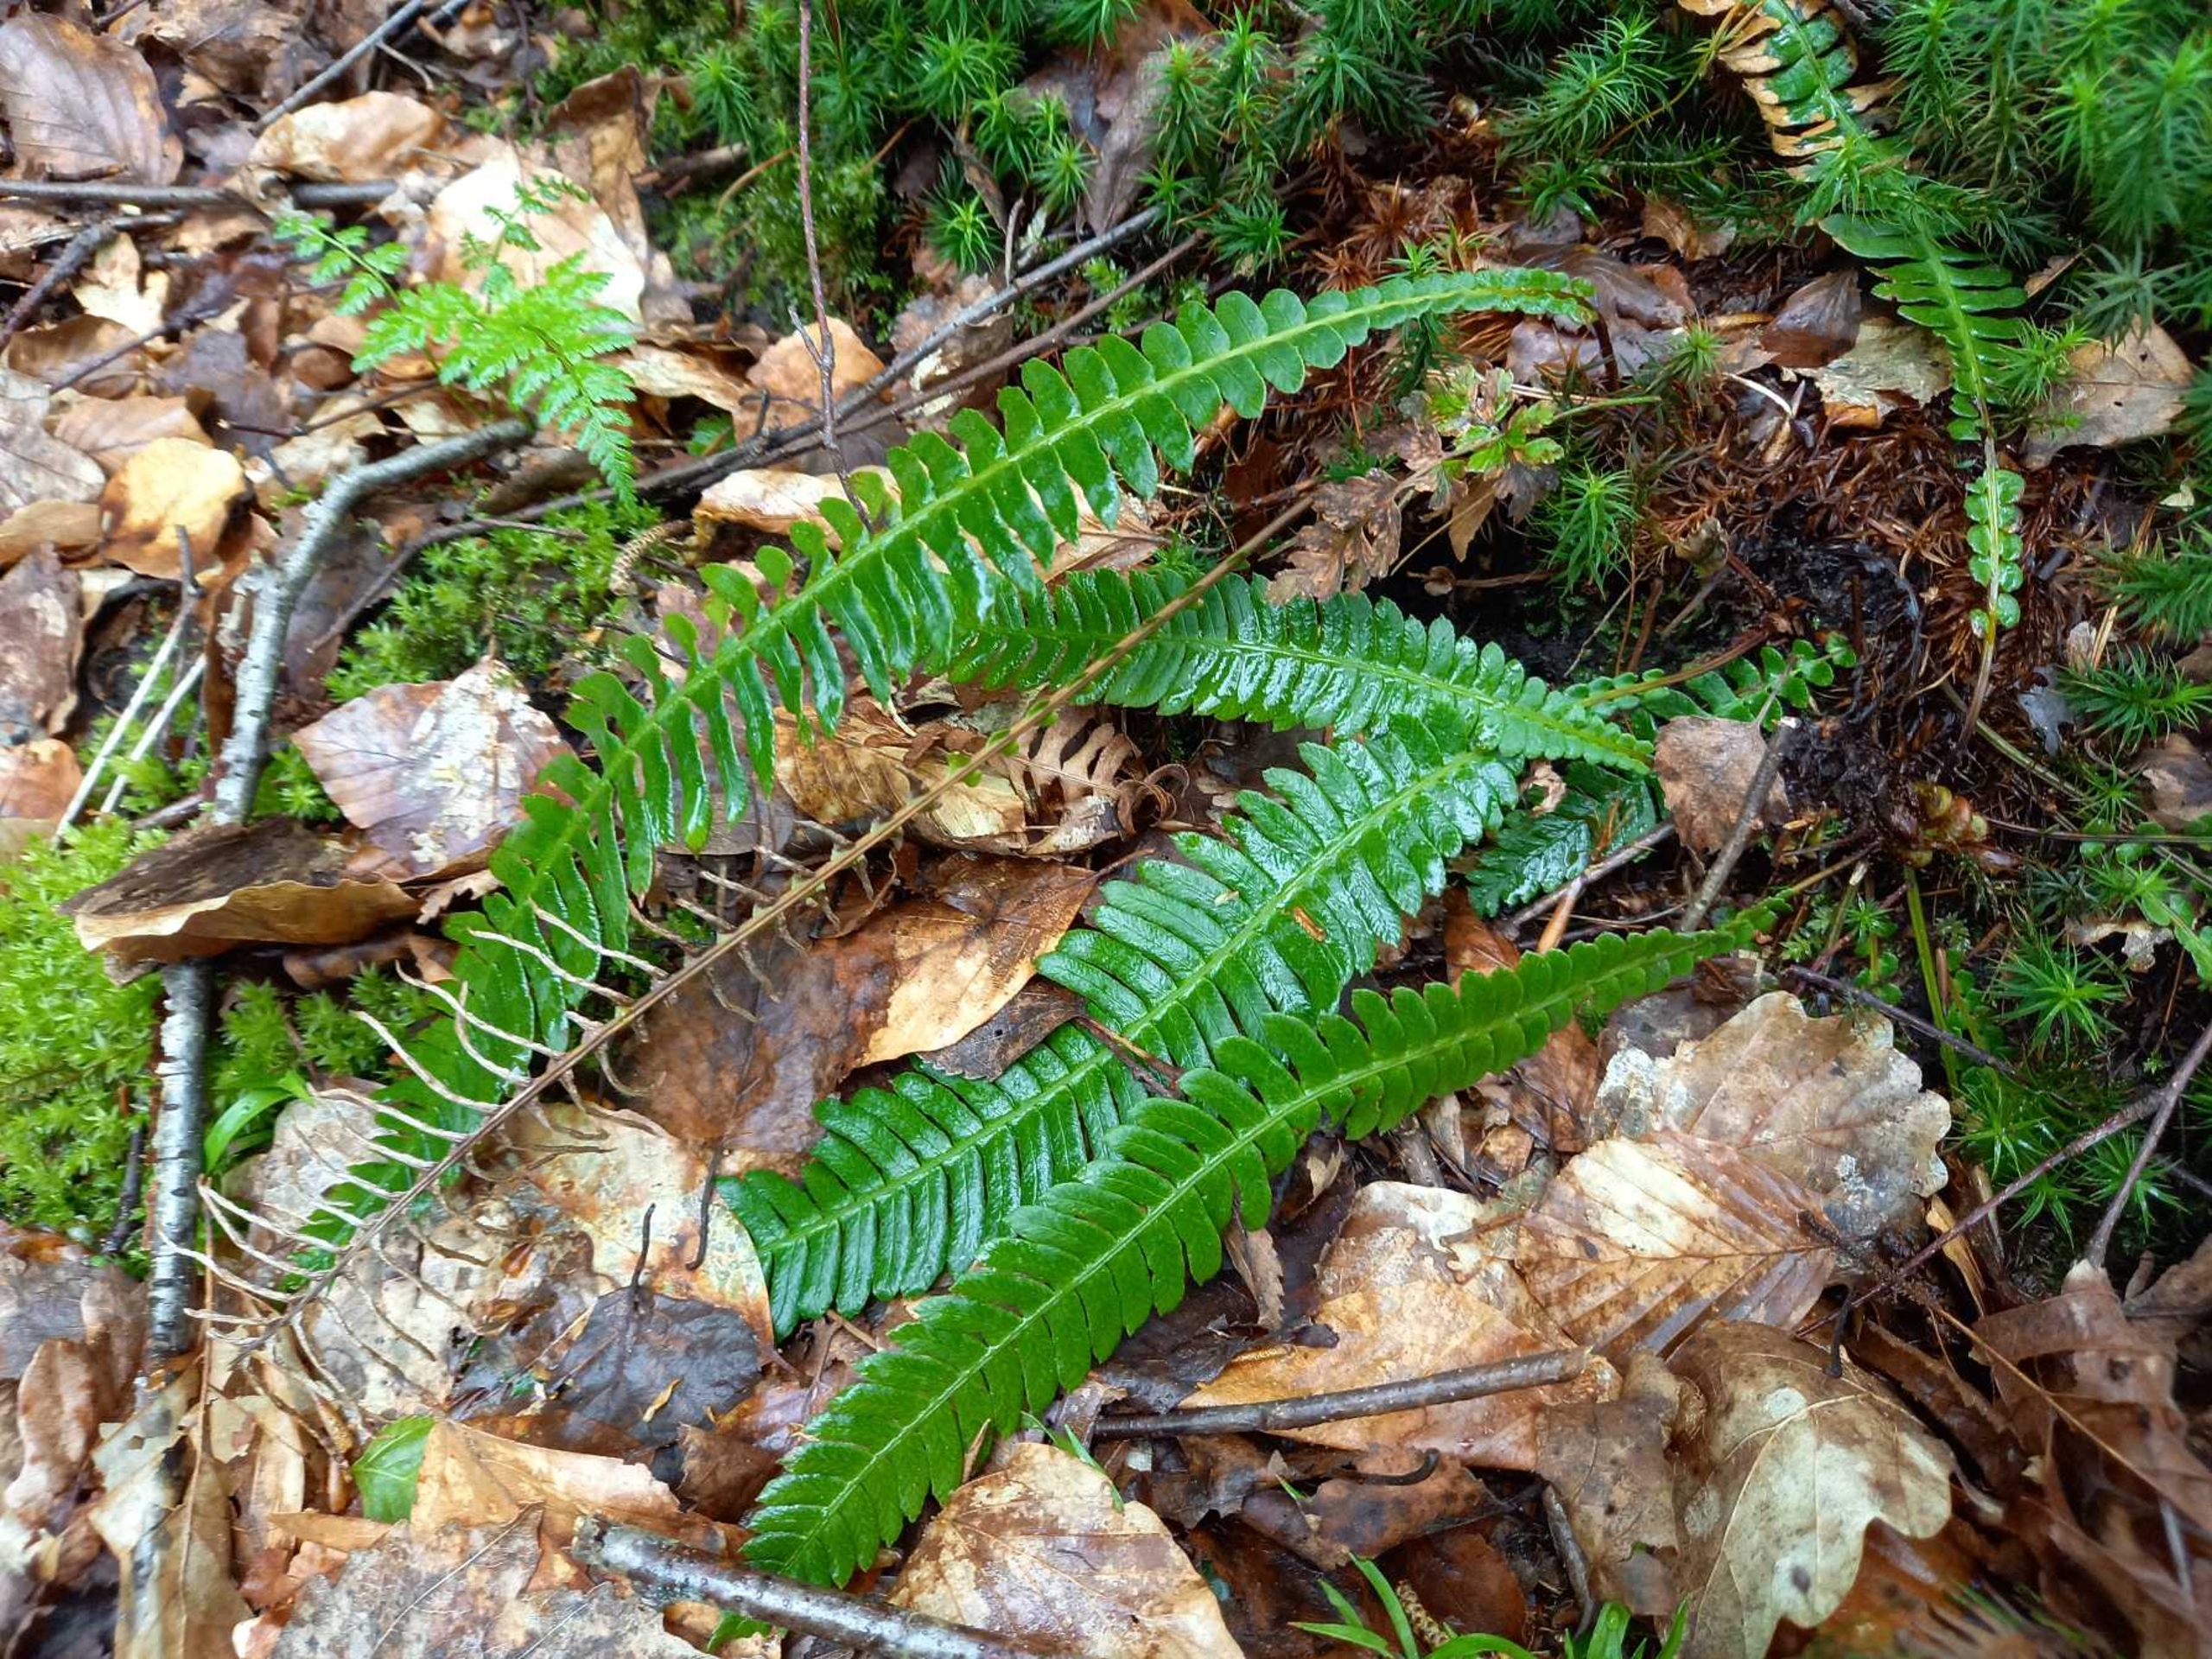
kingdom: Plantae
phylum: Tracheophyta
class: Polypodiopsida
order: Polypodiales
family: Blechnaceae
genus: Struthiopteris
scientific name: Struthiopteris spicant
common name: Kambregne
